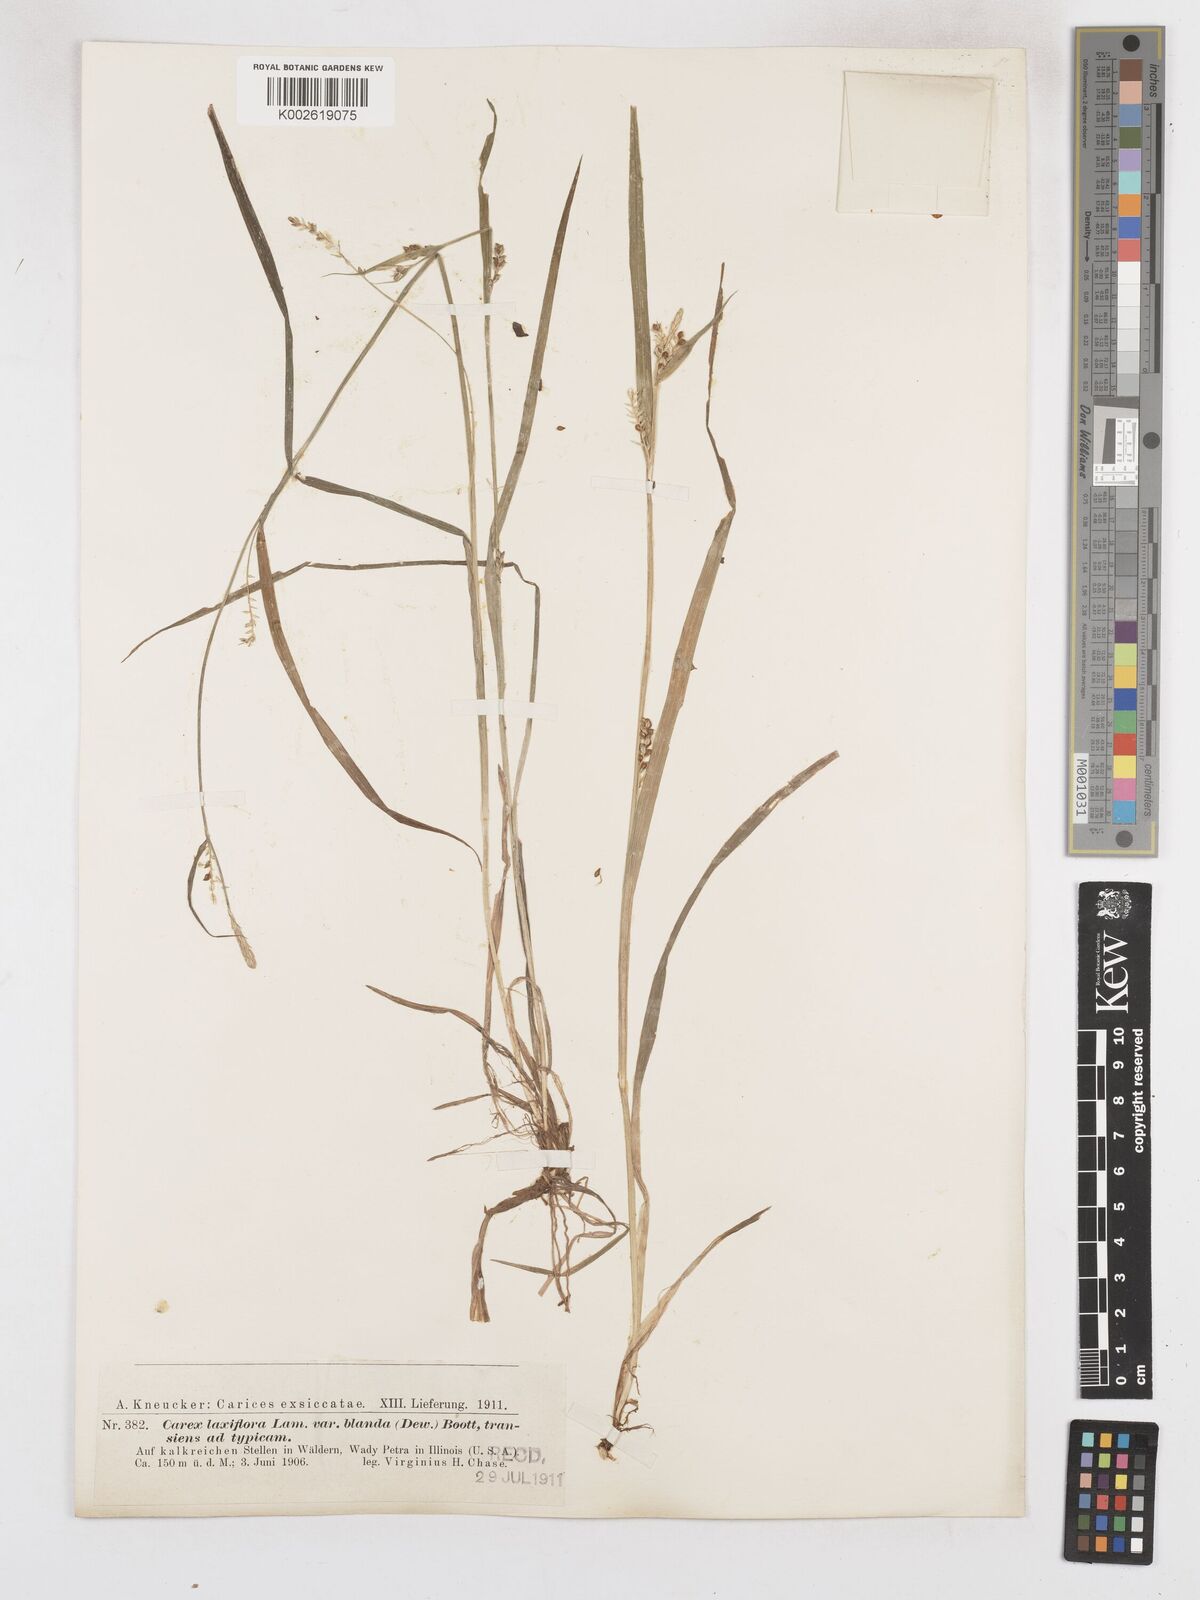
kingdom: Plantae
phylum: Tracheophyta
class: Liliopsida
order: Poales
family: Cyperaceae
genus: Carex
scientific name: Carex blanda
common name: Bland sedge
